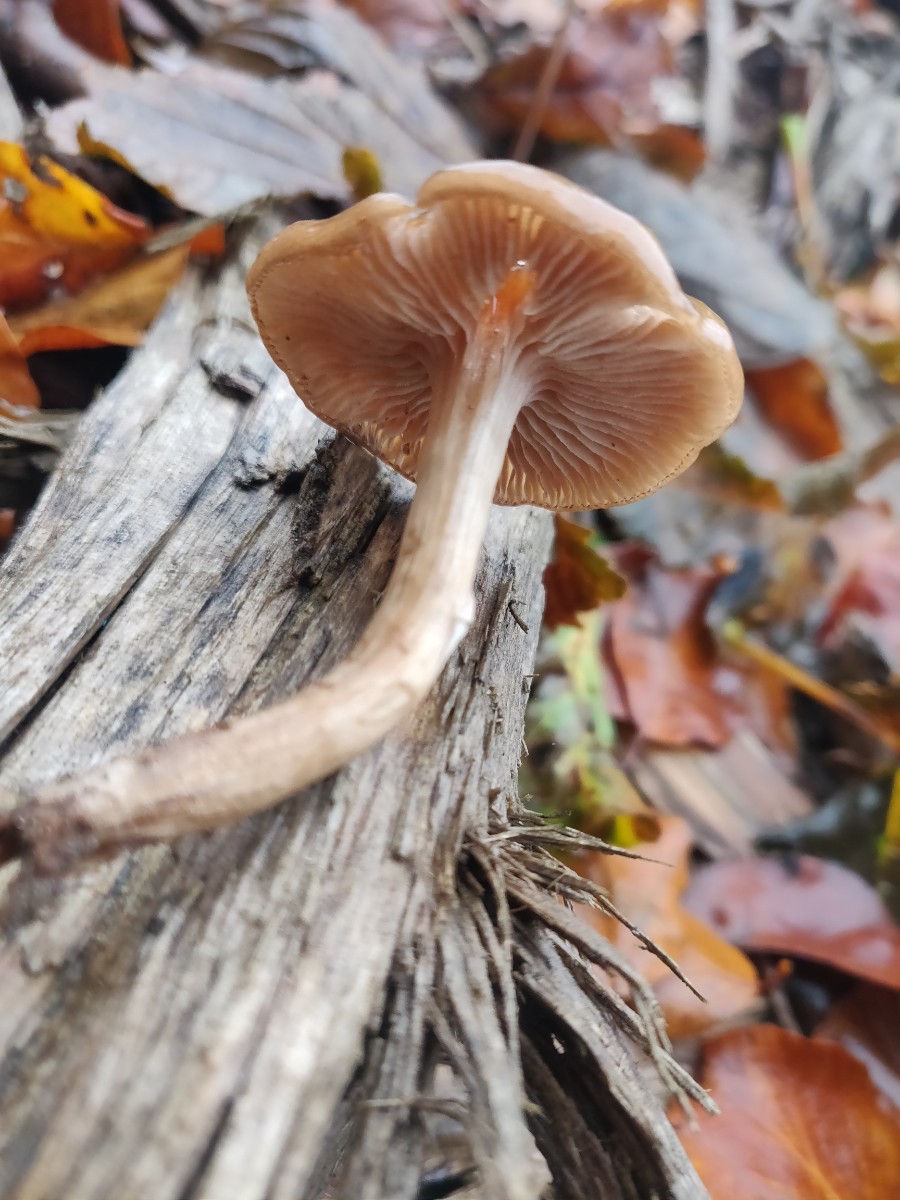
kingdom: Fungi
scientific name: Fungi
